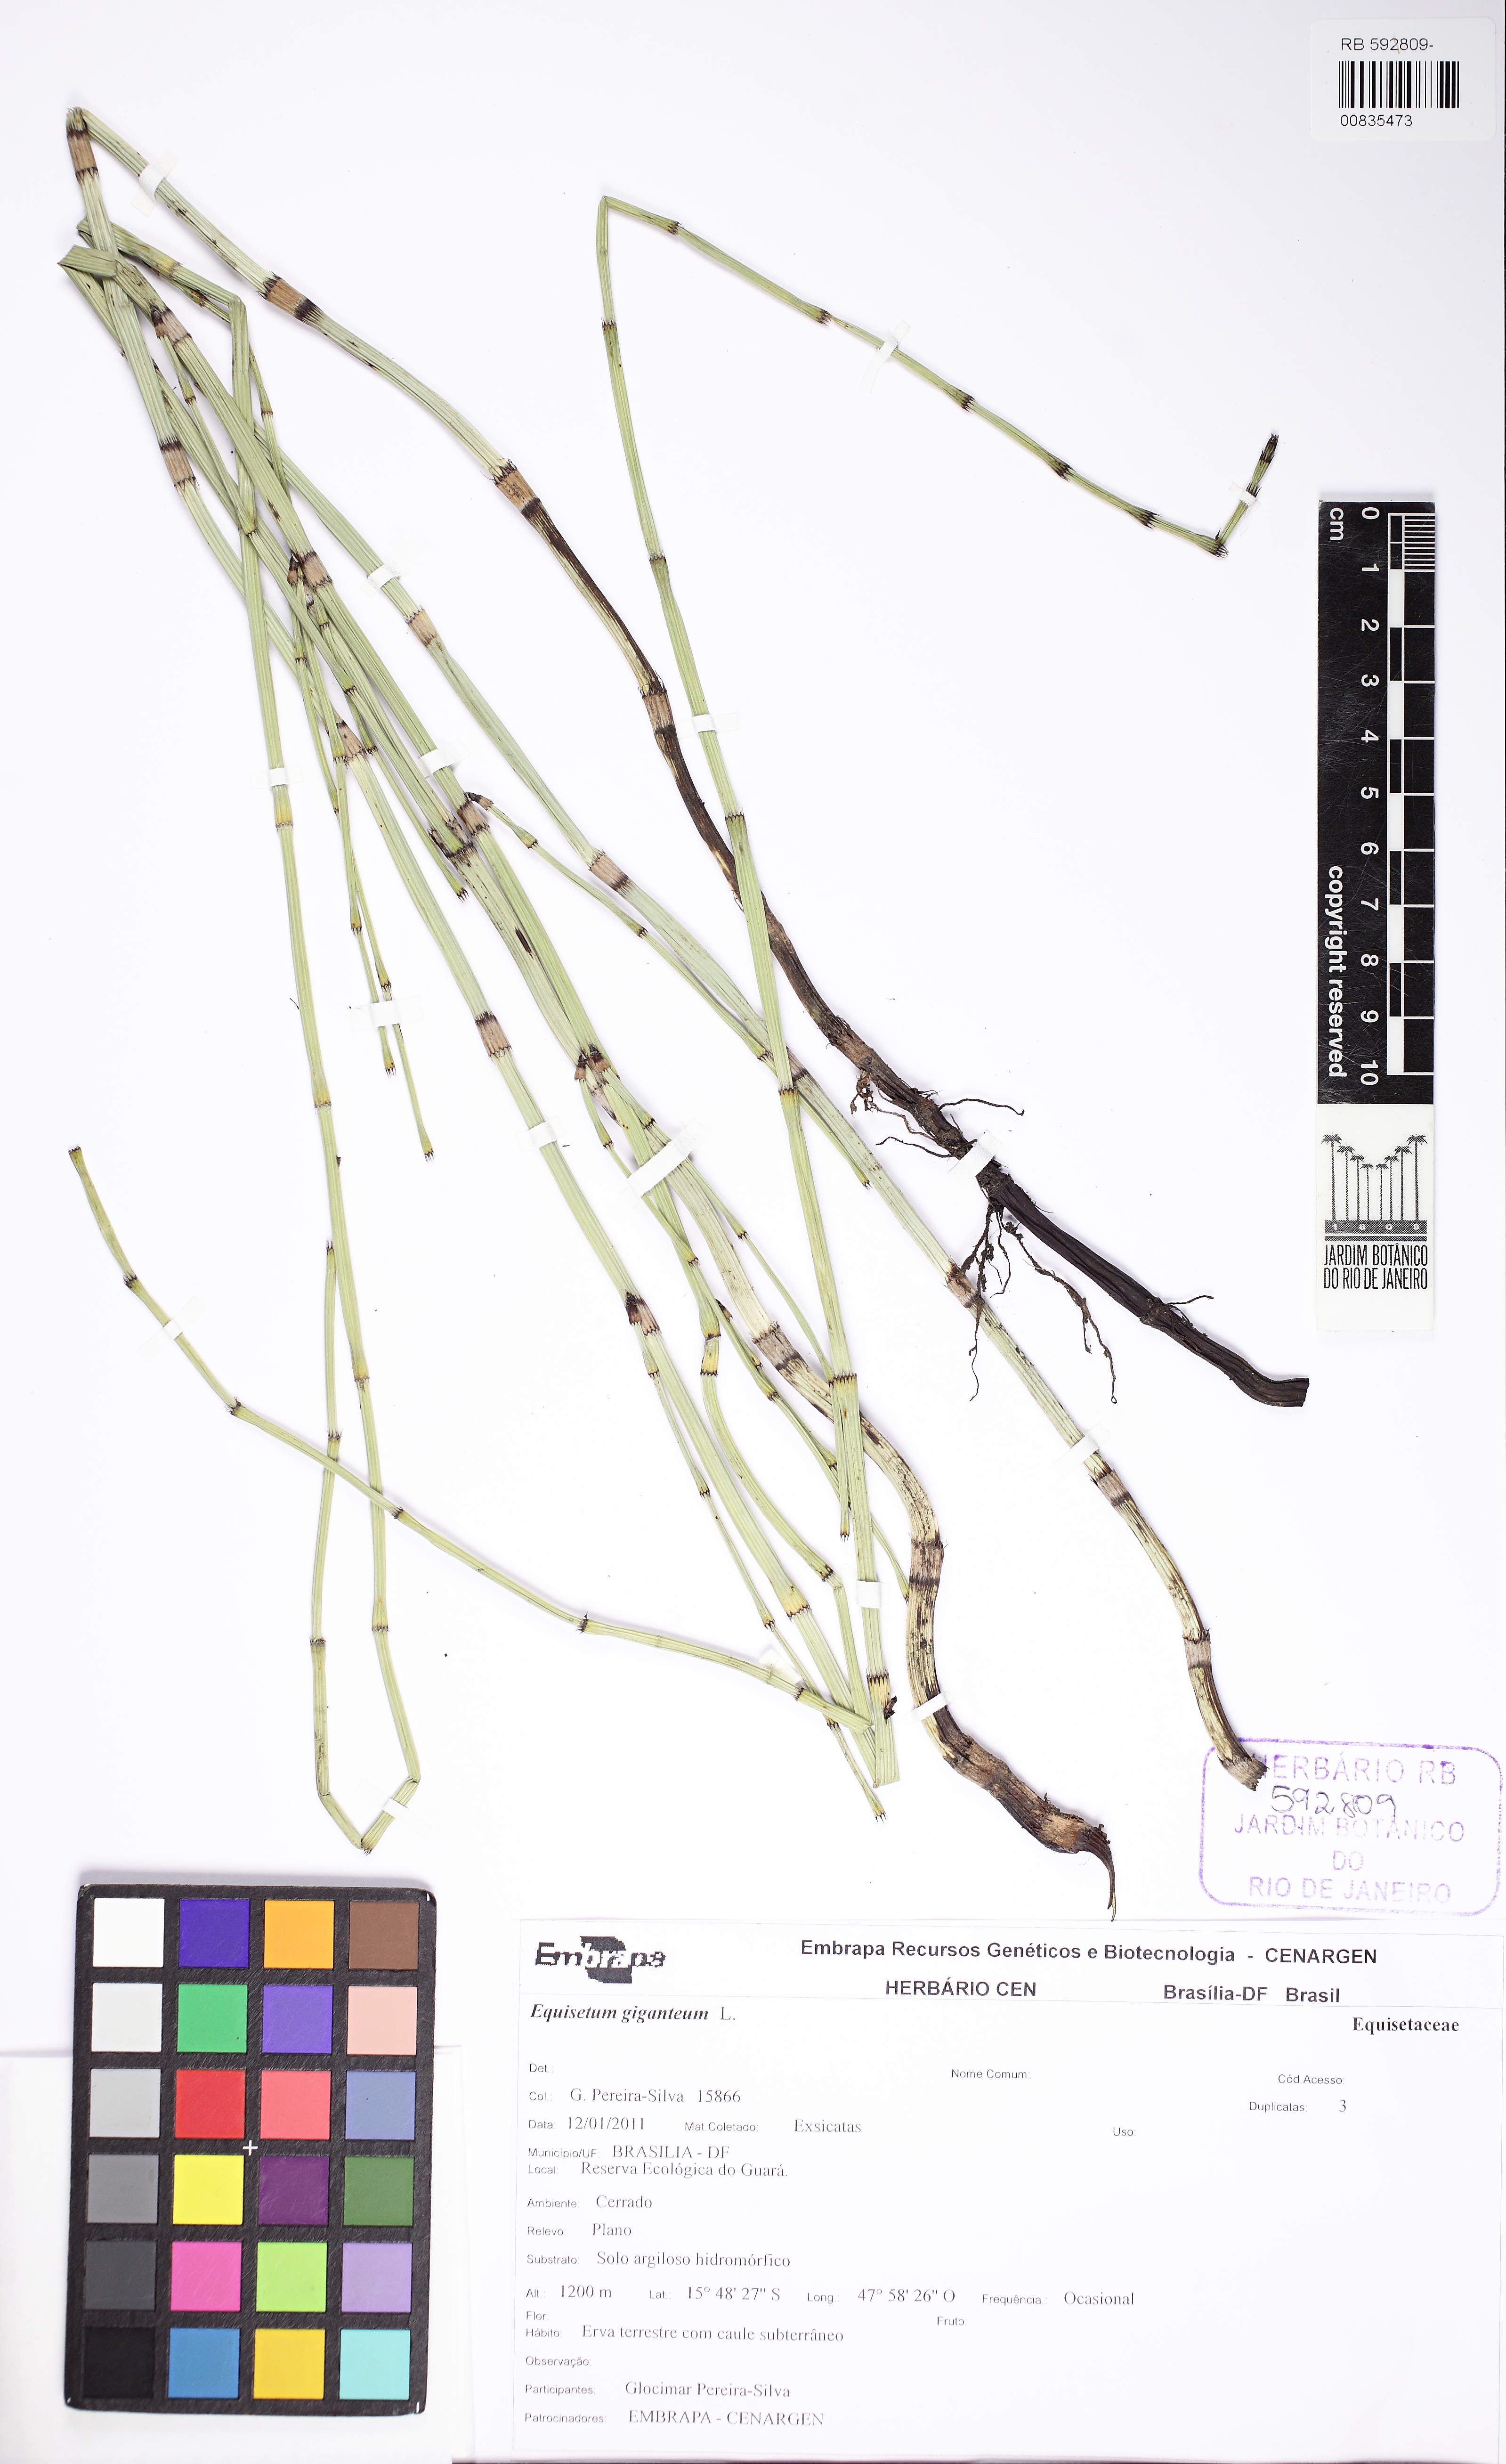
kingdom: Plantae
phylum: Tracheophyta
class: Polypodiopsida
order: Equisetales
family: Equisetaceae
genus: Equisetum
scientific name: Equisetum giganteum
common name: Giant horsetail
